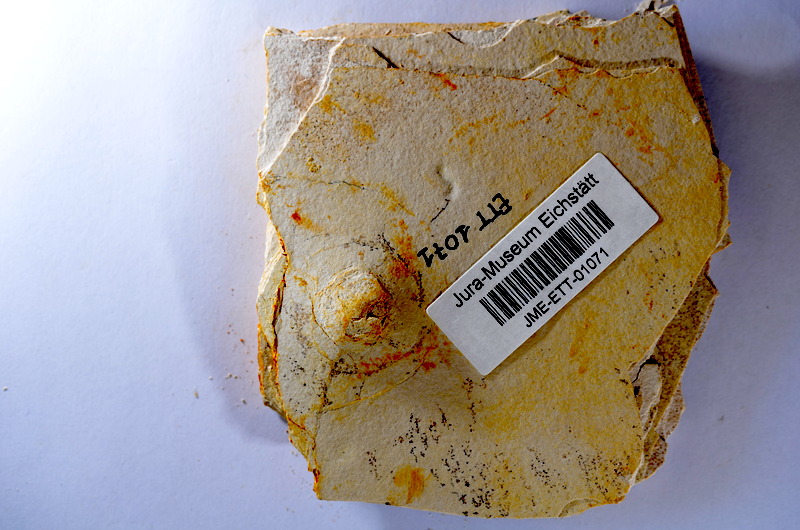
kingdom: Animalia
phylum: Chordata
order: Salmoniformes
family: Orthogonikleithridae
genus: Orthogonikleithrus
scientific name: Orthogonikleithrus hoelli
